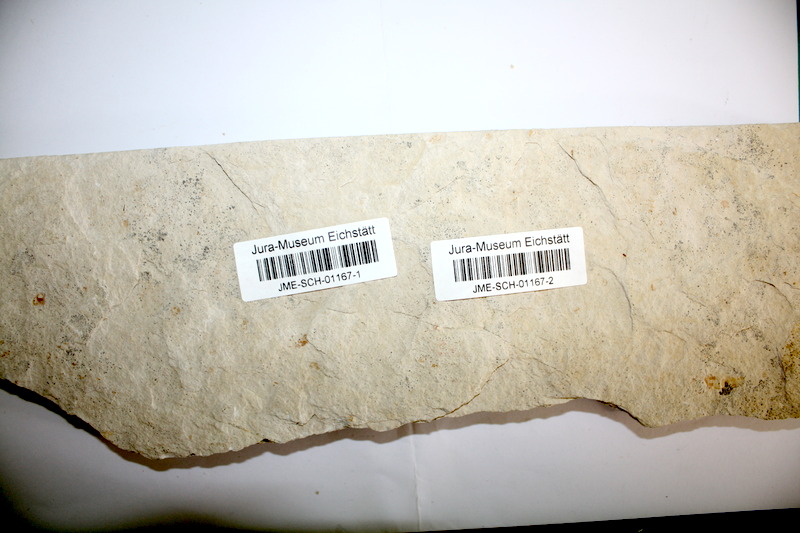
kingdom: Animalia
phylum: Chordata
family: Ascalaboidae
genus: Tharsis
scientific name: Tharsis dubius
